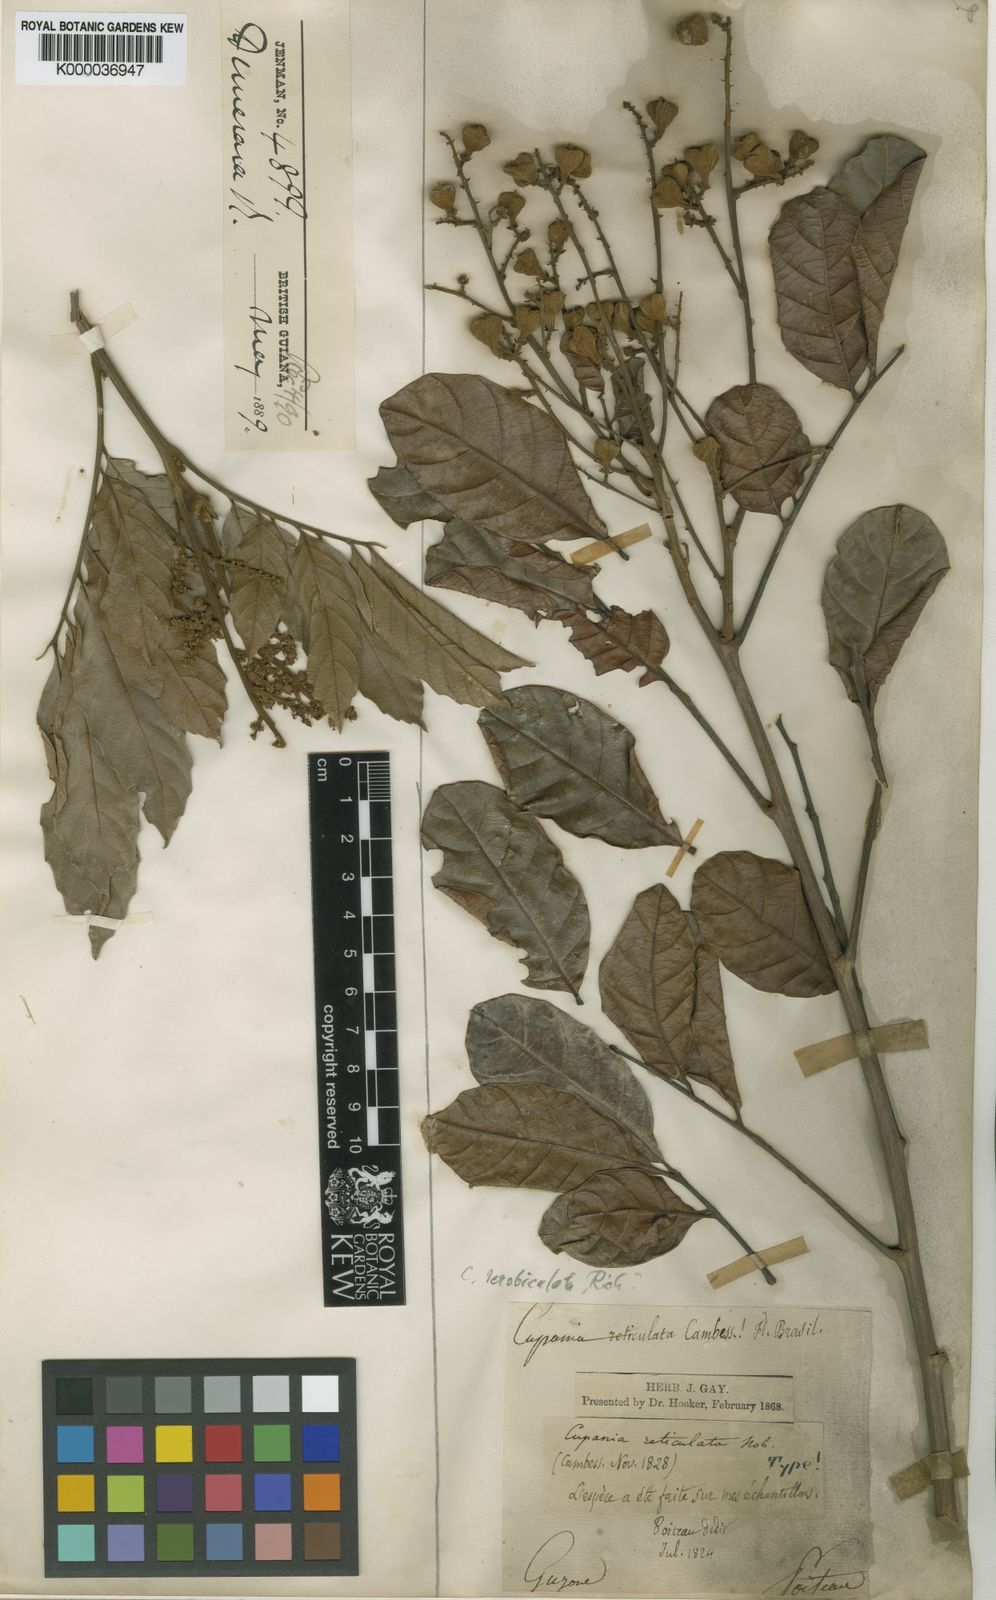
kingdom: Plantae
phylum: Tracheophyta
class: Magnoliopsida
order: Sapindales
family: Sapindaceae
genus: Cupania
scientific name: Cupania scrobiculata
